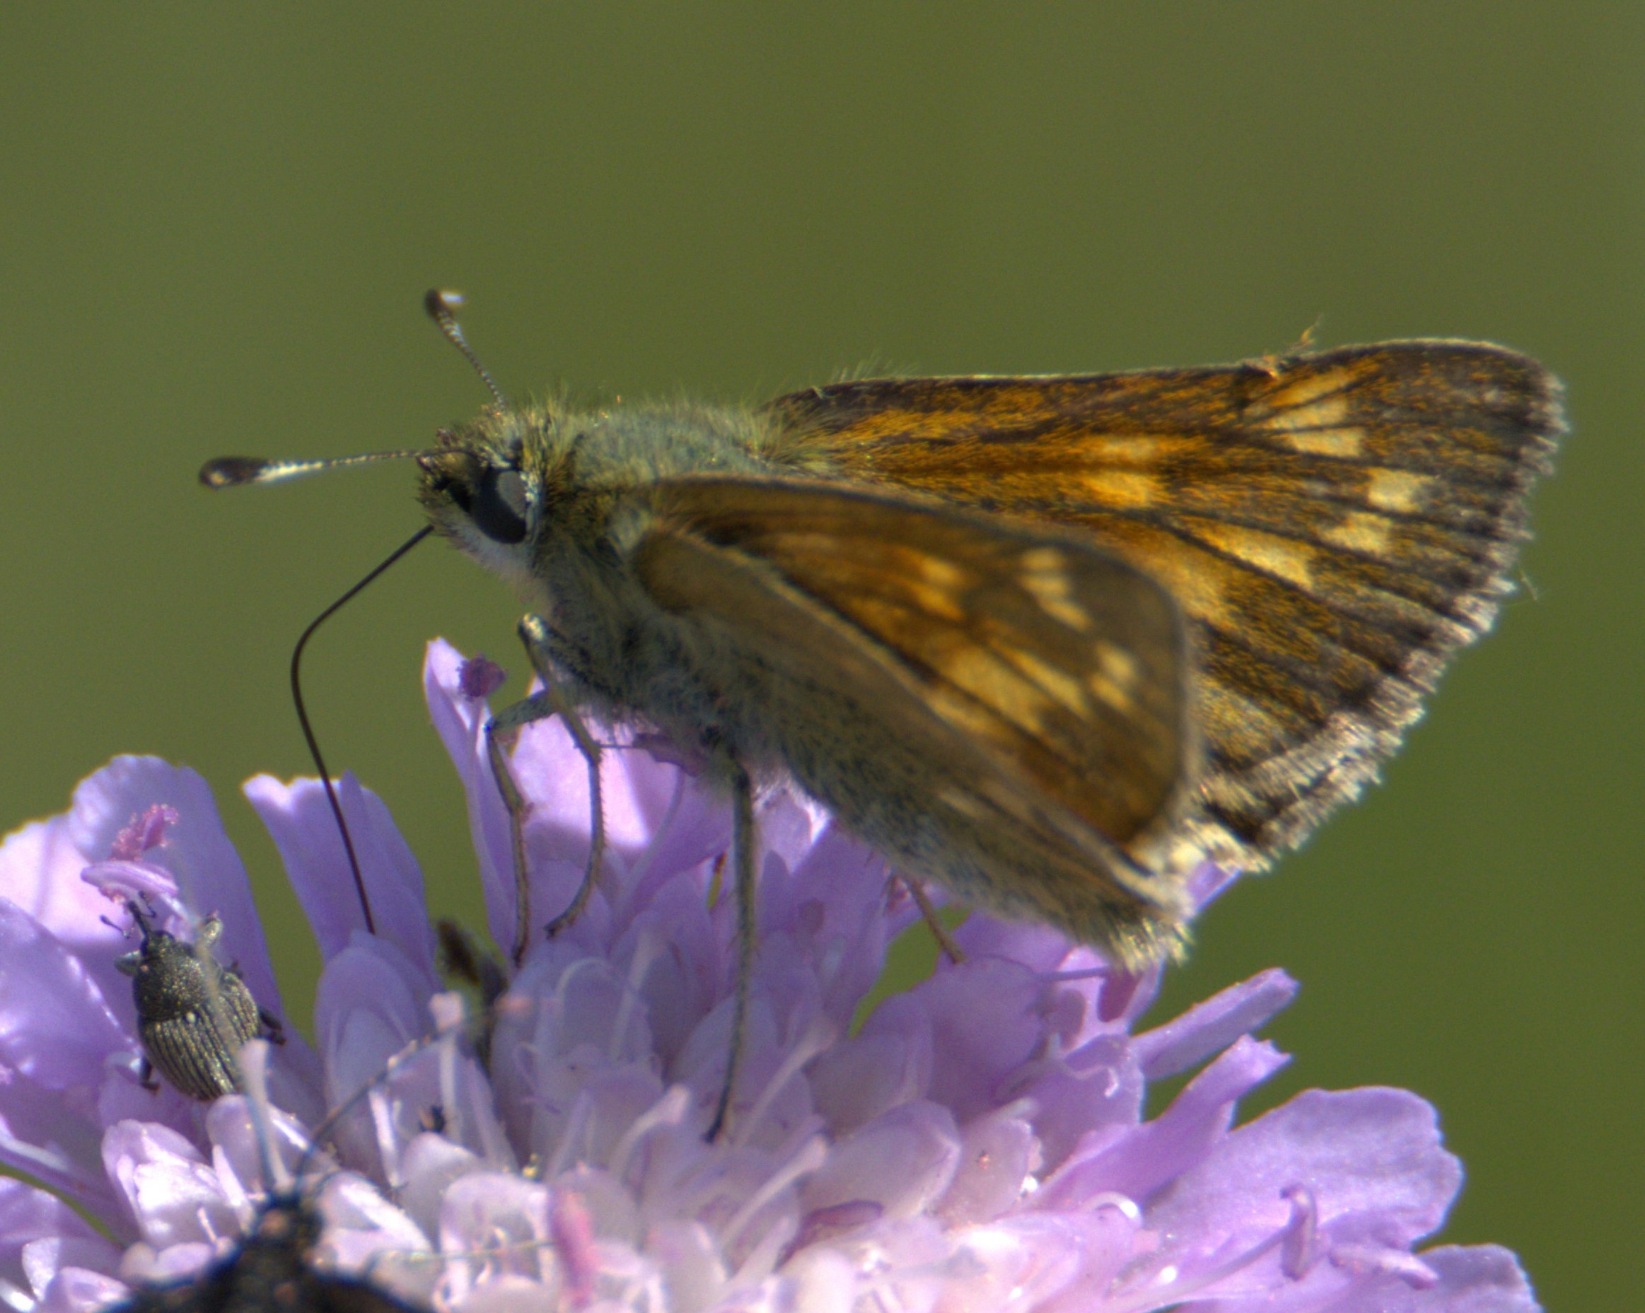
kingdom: Animalia
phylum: Arthropoda
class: Insecta
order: Lepidoptera
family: Hesperiidae
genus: Ochlodes
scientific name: Ochlodes venata
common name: Stor bredpande
